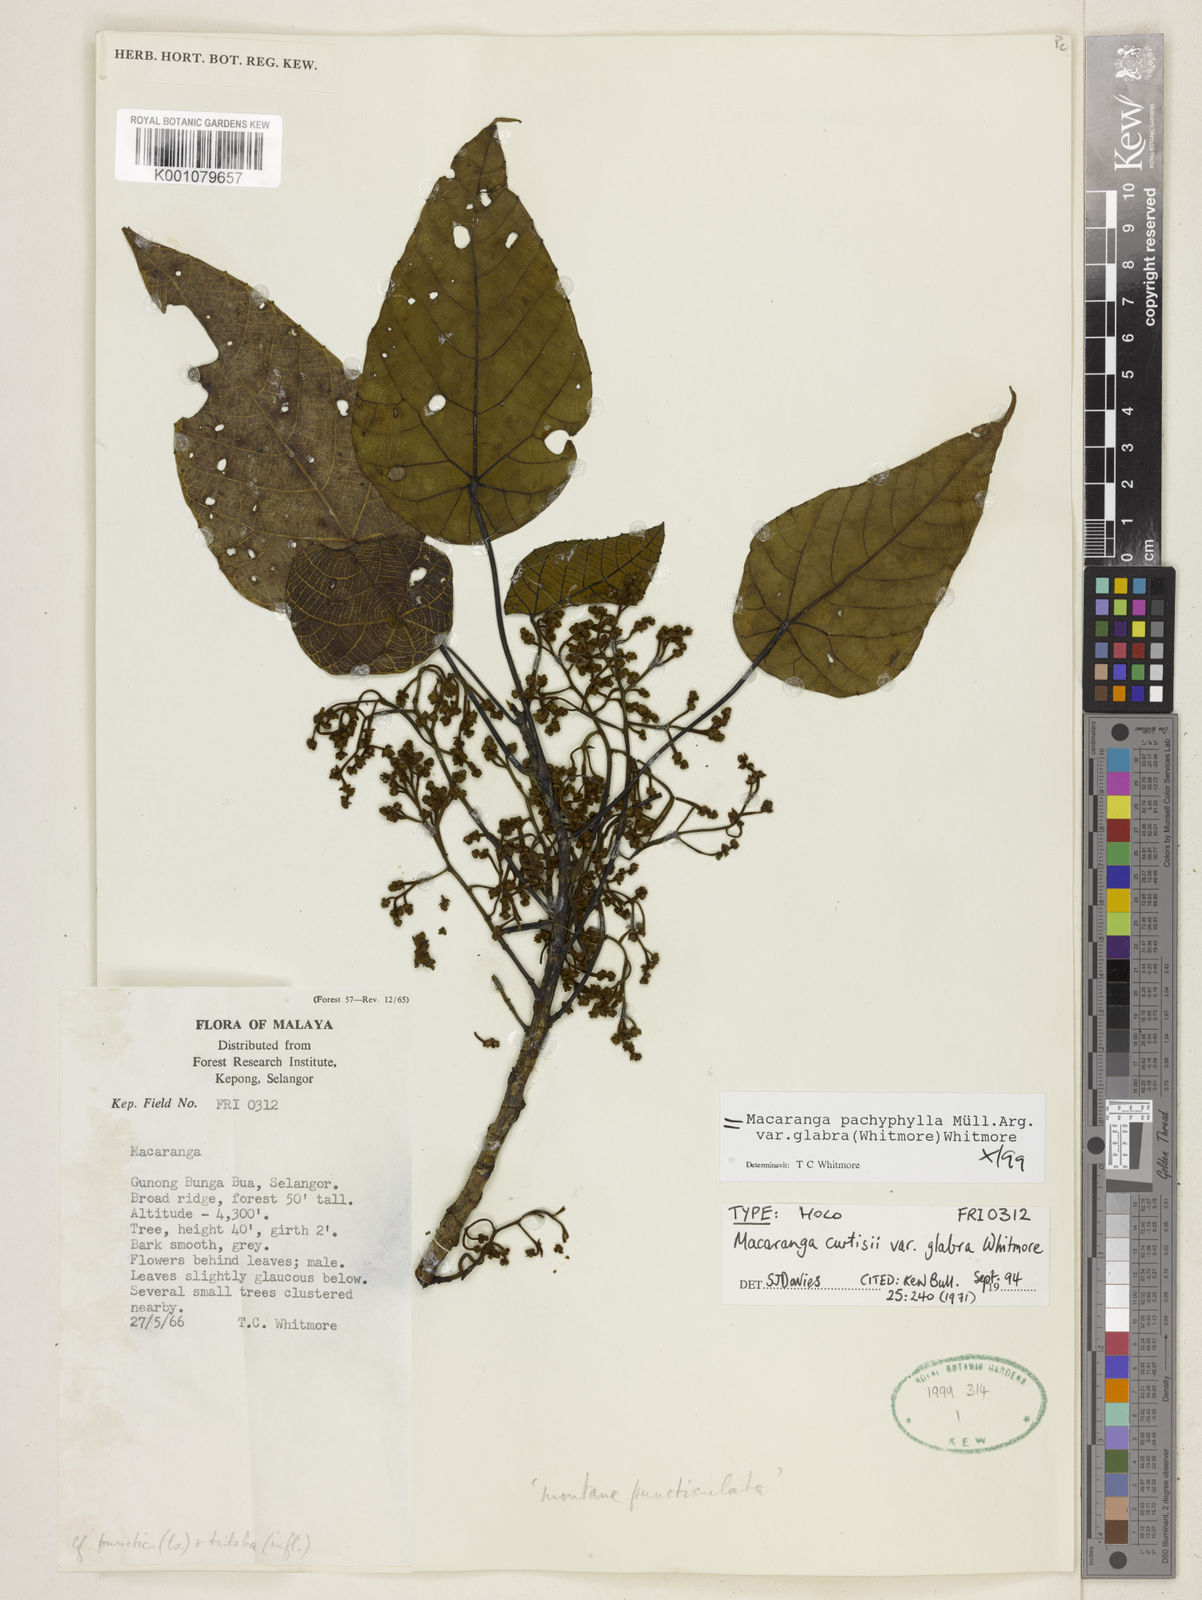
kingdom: Plantae
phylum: Tracheophyta
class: Magnoliopsida
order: Malpighiales
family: Euphorbiaceae
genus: Macaranga
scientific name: Macaranga
